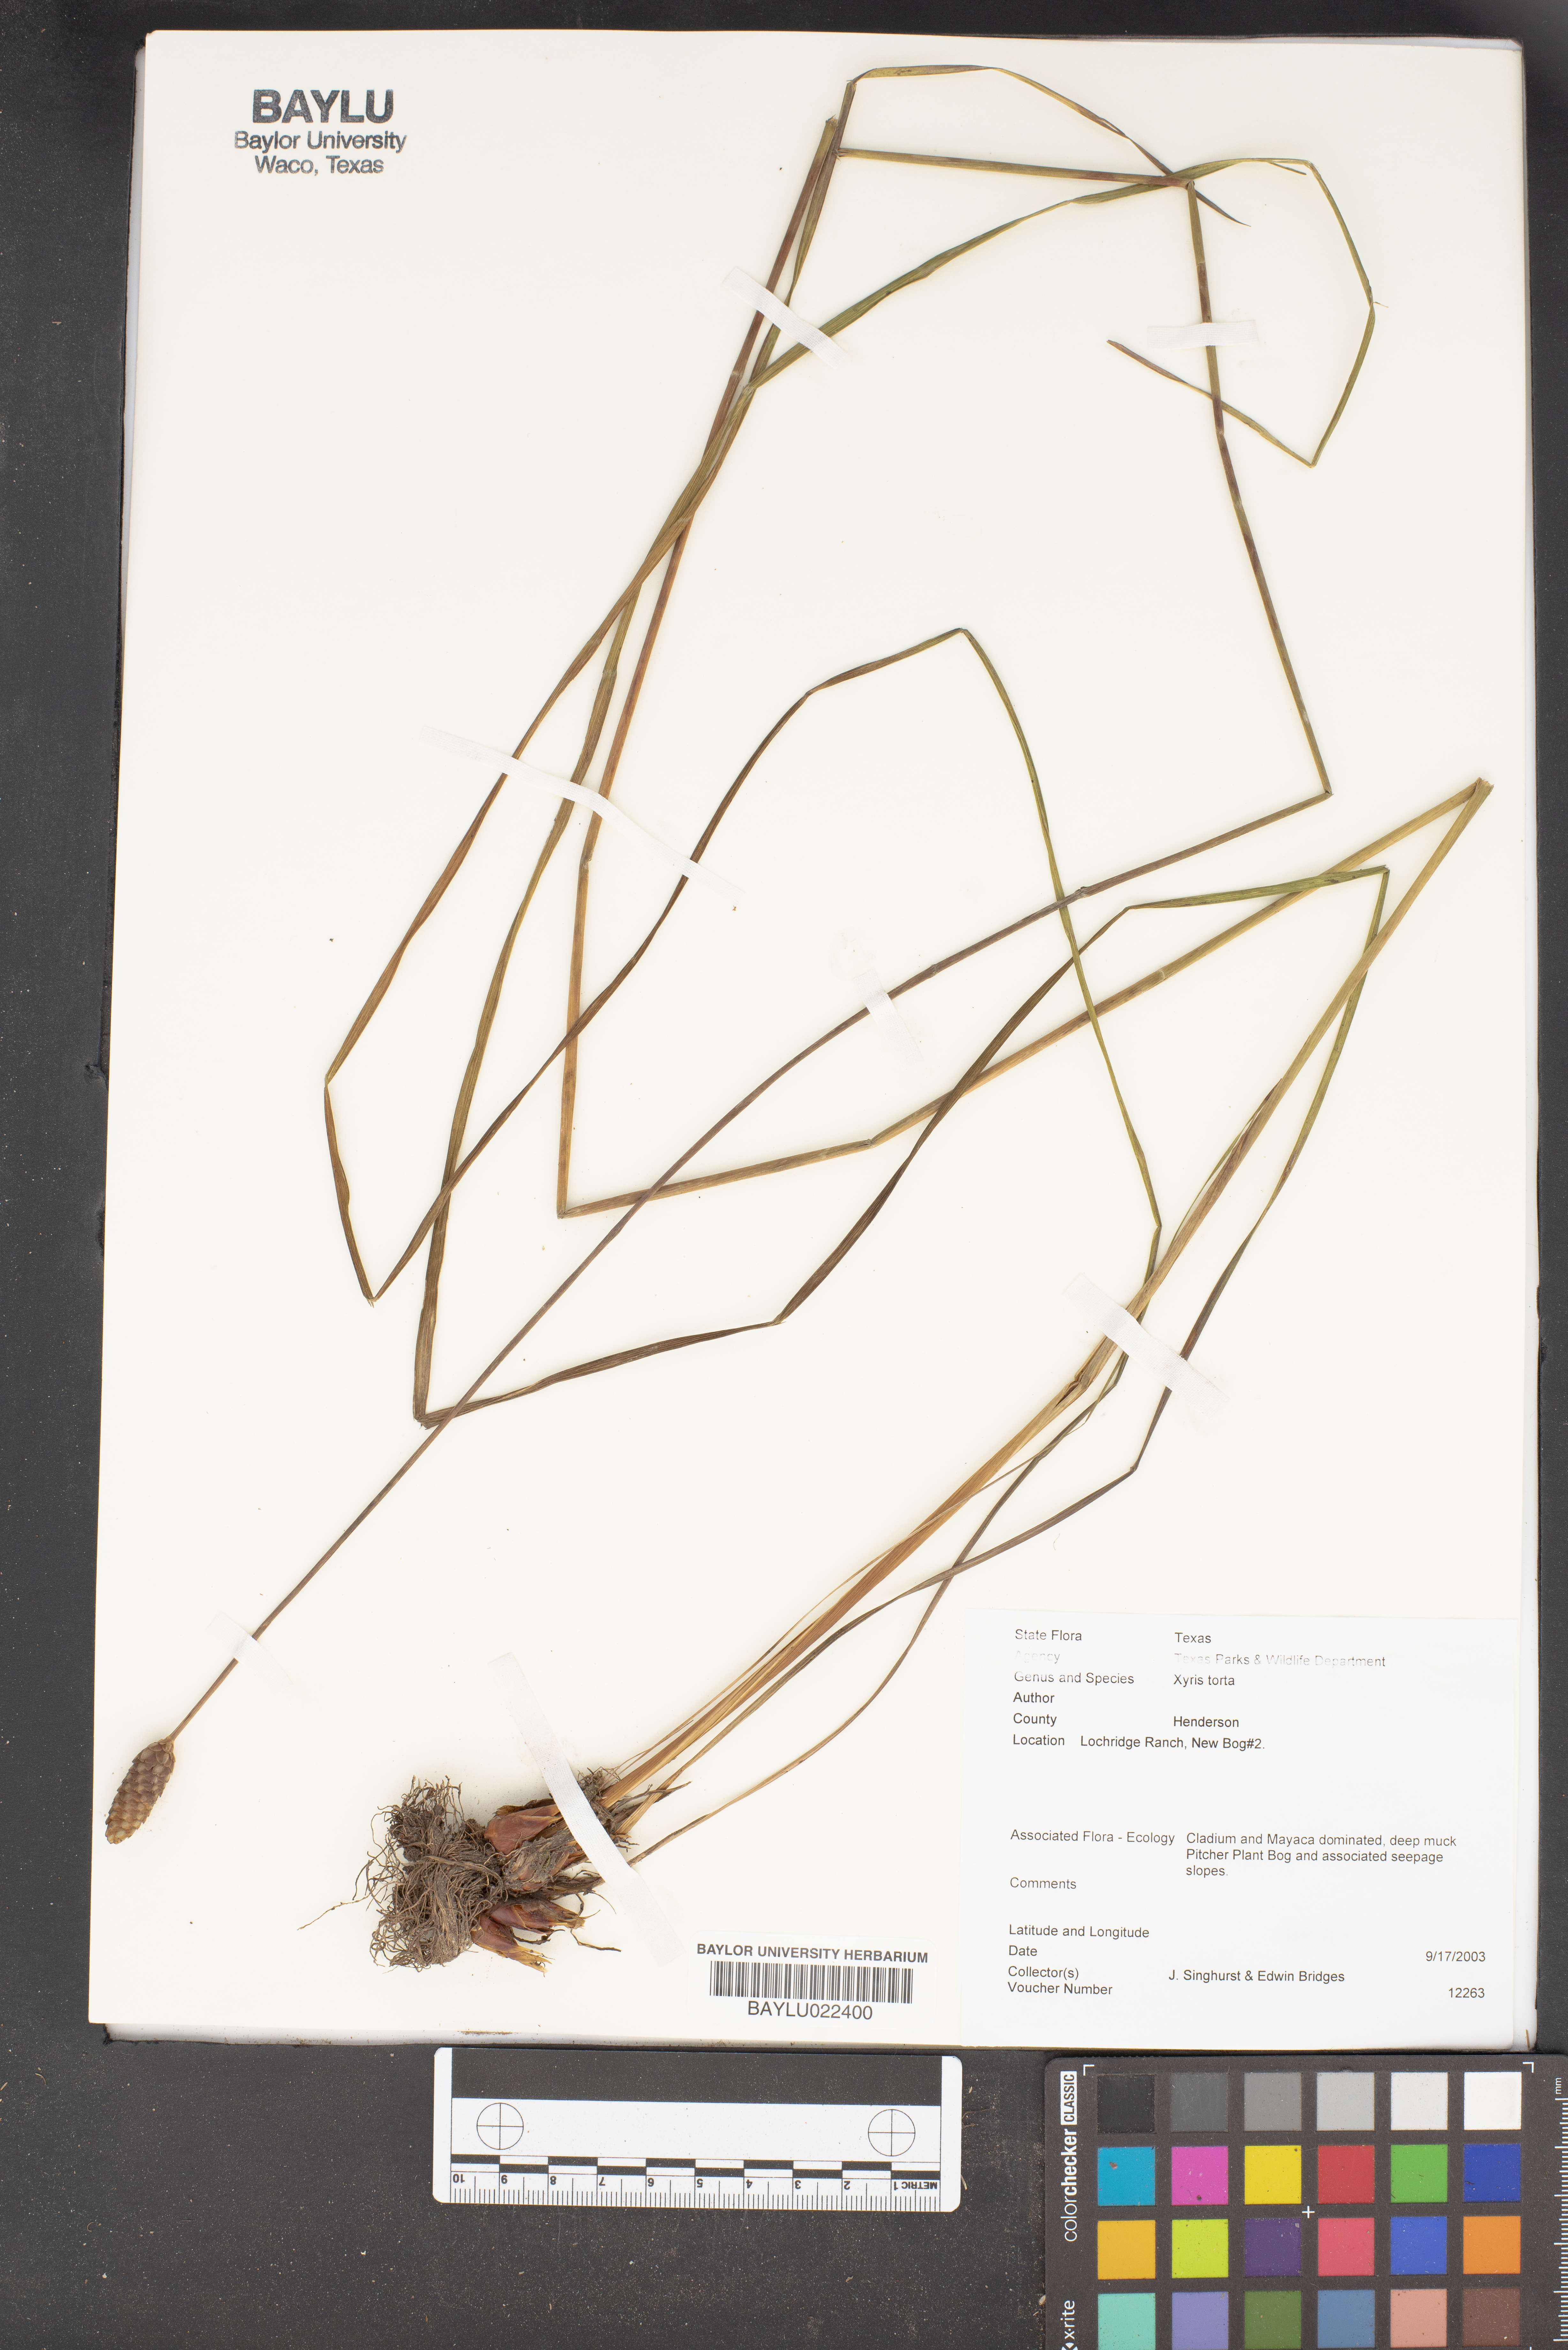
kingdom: Plantae
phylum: Tracheophyta
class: Liliopsida
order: Poales
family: Xyridaceae
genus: Xyris
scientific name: Xyris torta
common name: Common yelloweyed grass
